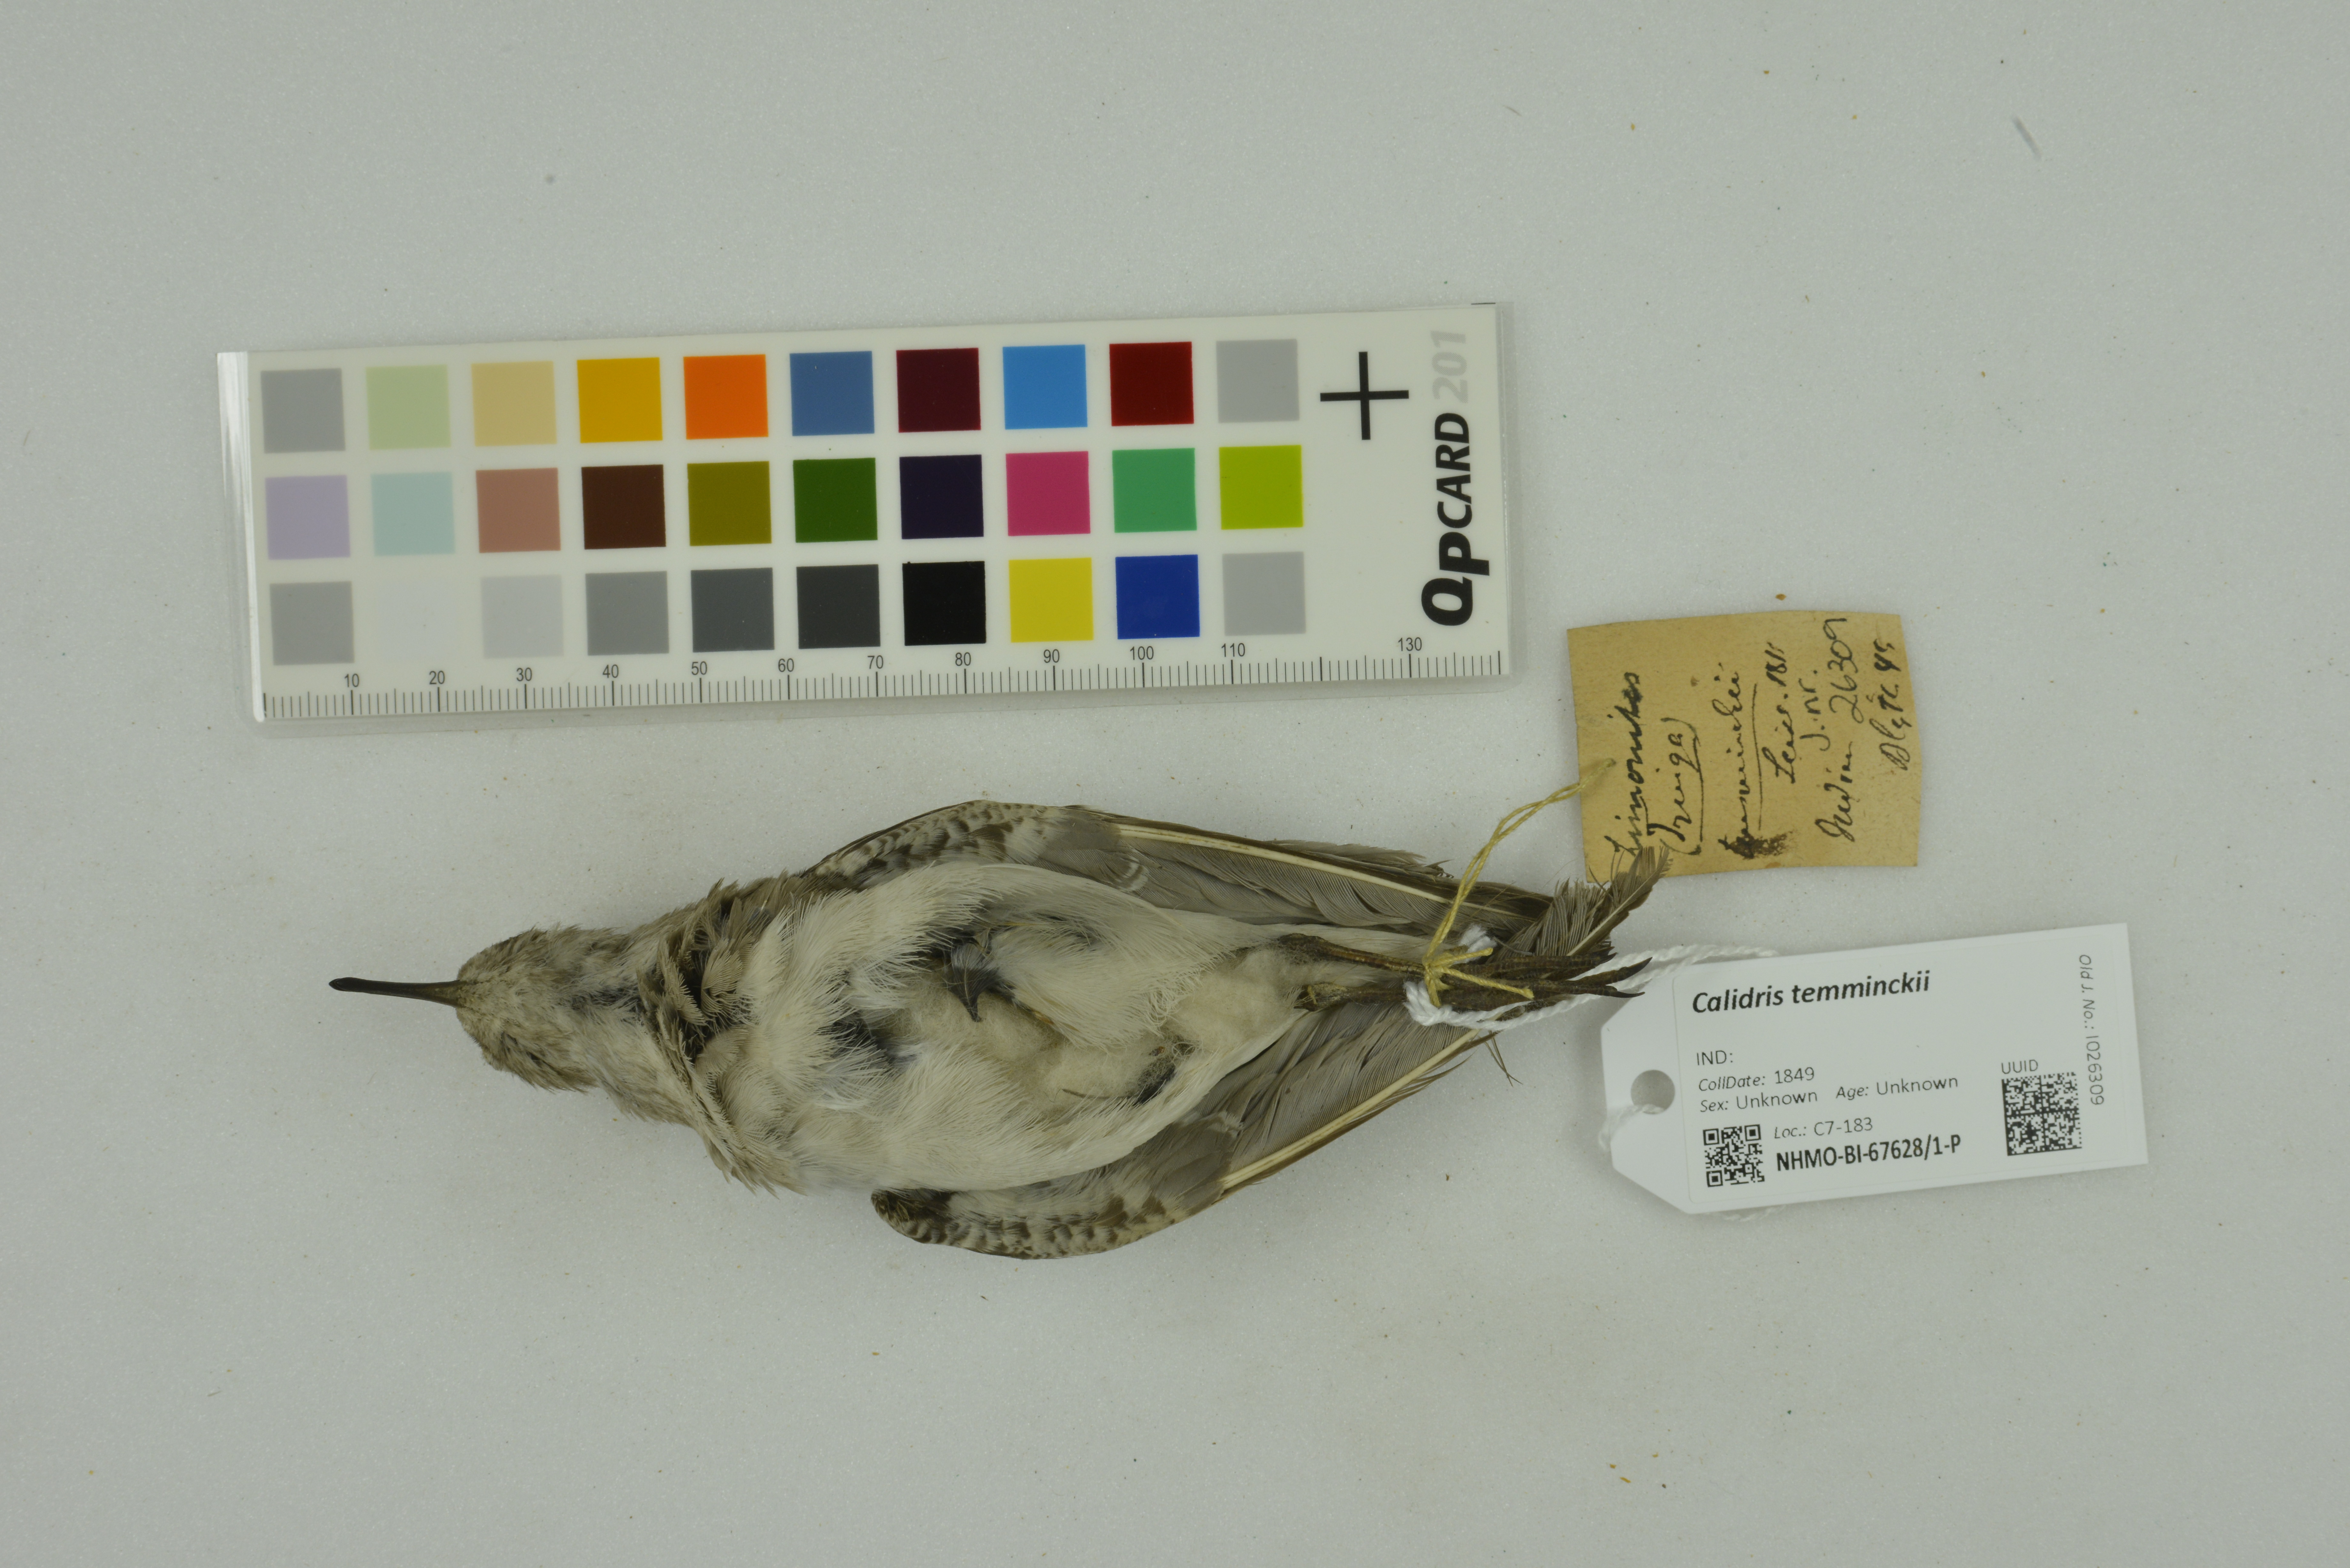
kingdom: Animalia
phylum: Chordata
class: Aves
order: Charadriiformes
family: Scolopacidae
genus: Calidris
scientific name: Calidris temminckii
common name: Temminck's stint
